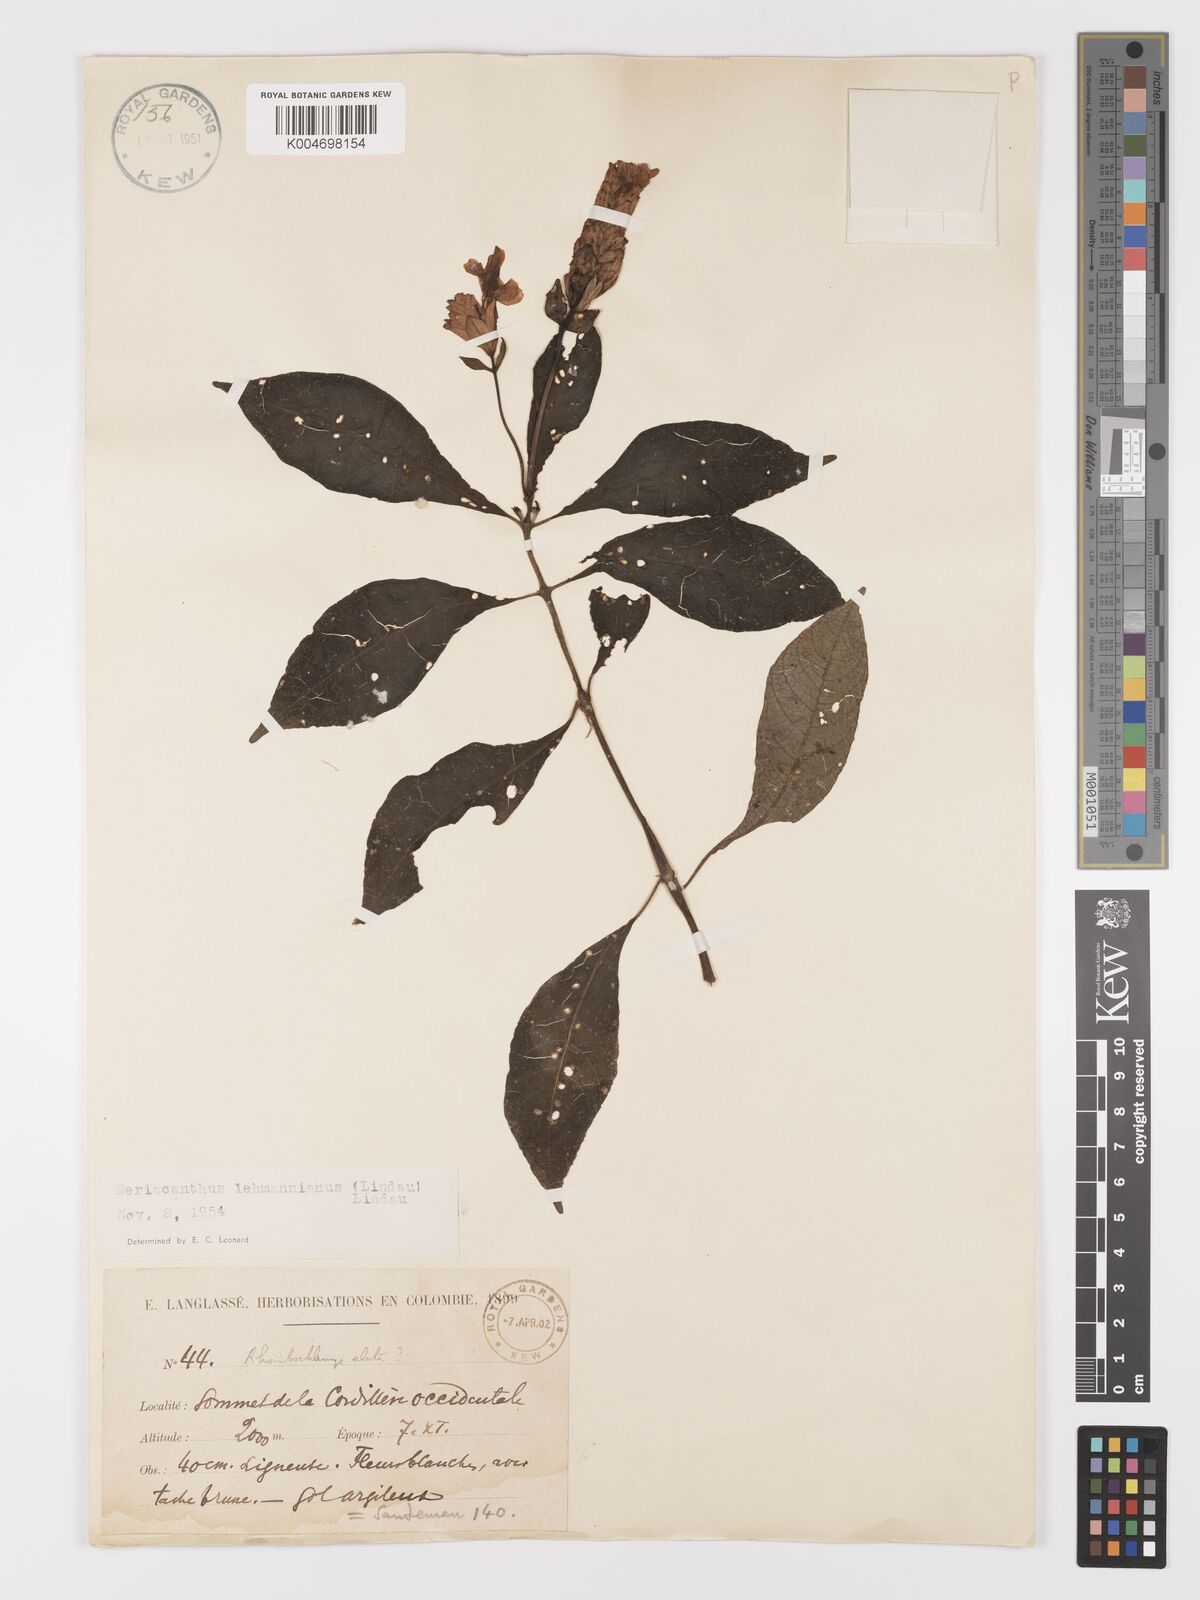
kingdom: Plantae
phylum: Tracheophyta
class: Magnoliopsida
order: Lamiales
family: Acanthaceae
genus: Neriacanthus
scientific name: Neriacanthus lehmannianus
